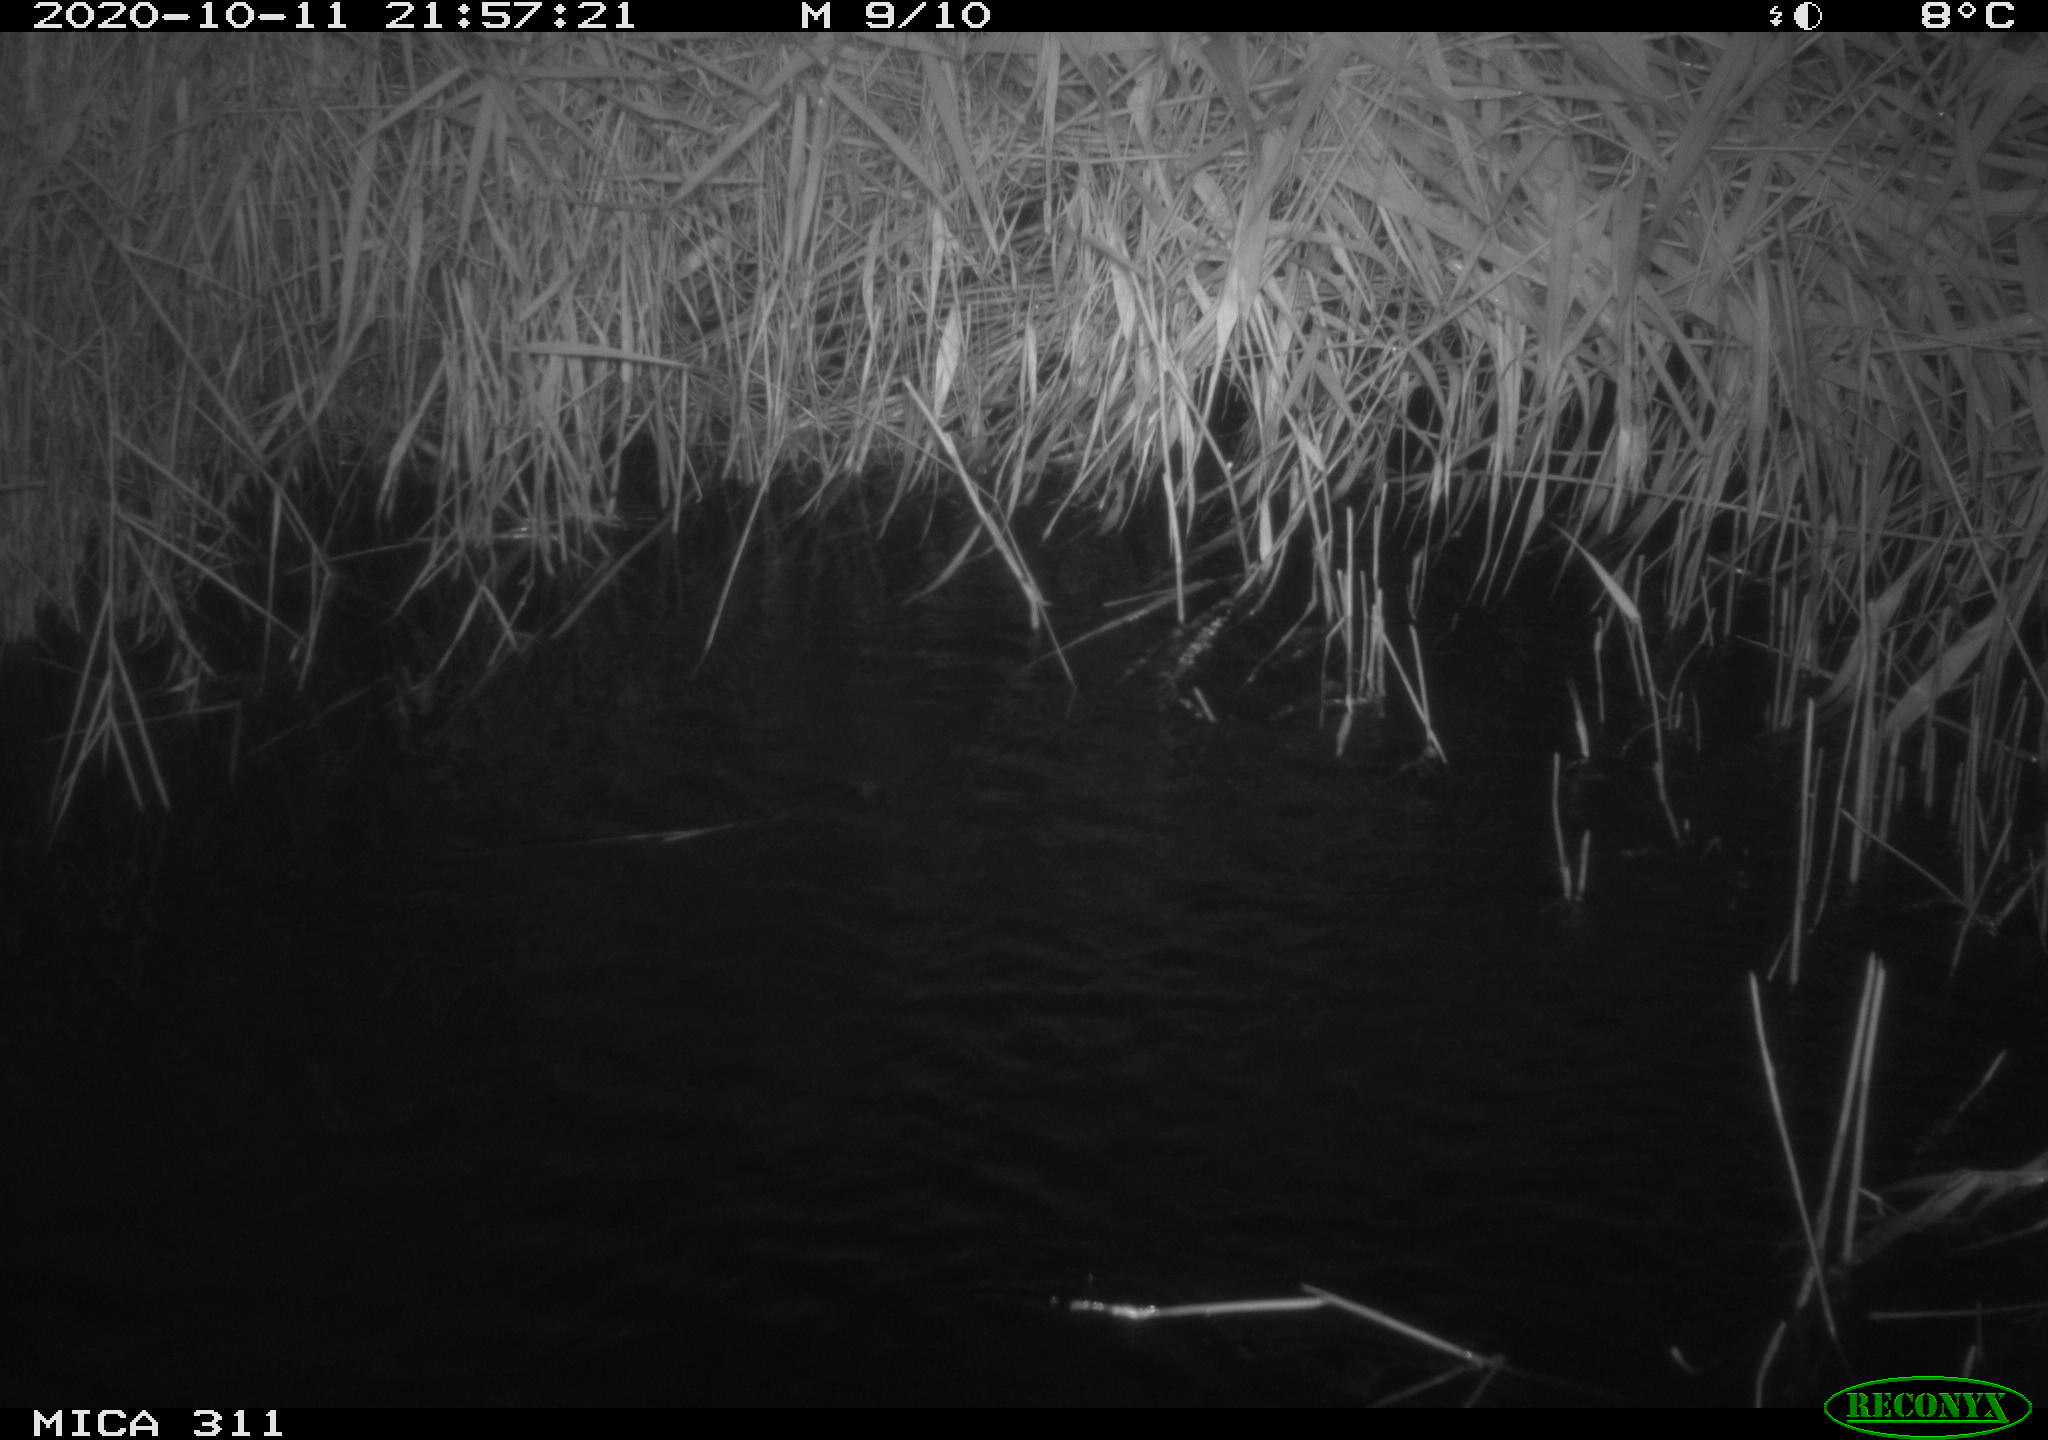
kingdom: Animalia
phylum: Chordata
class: Mammalia
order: Rodentia
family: Cricetidae
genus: Ondatra
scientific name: Ondatra zibethicus
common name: Muskrat
